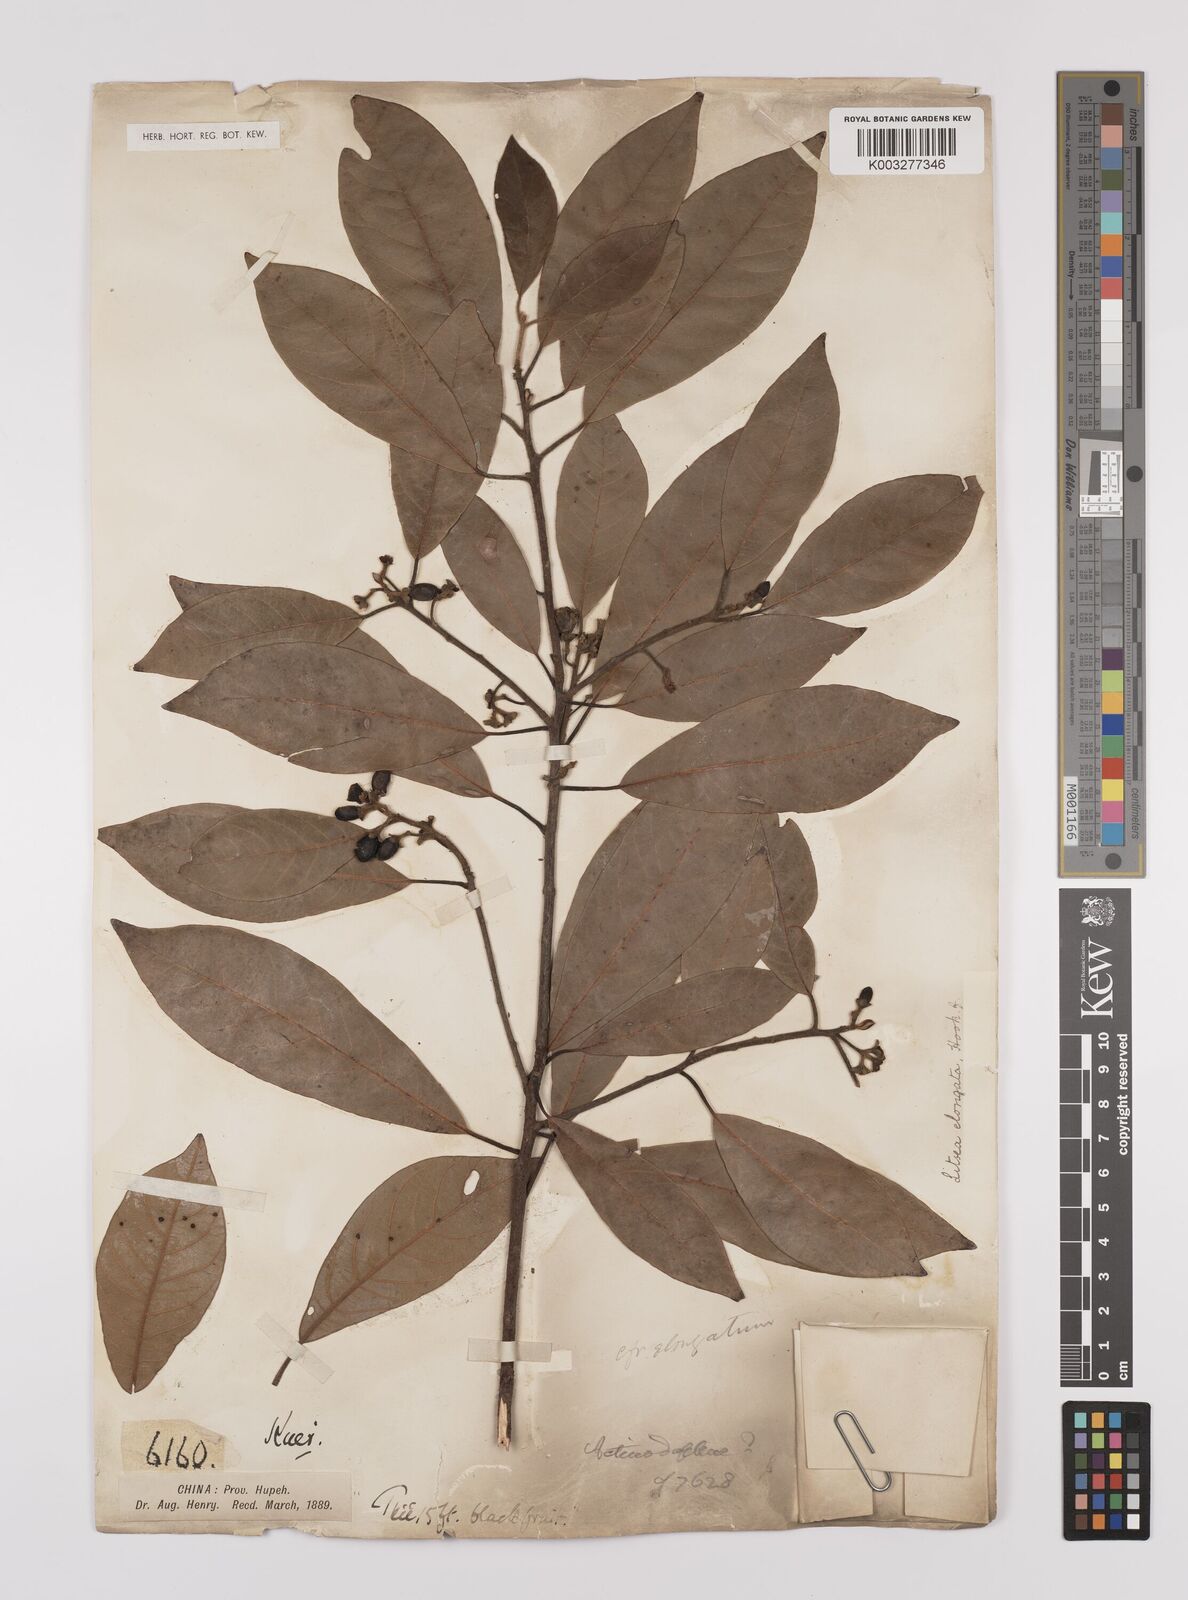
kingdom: Plantae
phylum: Tracheophyta
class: Magnoliopsida
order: Laurales
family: Lauraceae
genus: Litsea
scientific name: Litsea elongata
